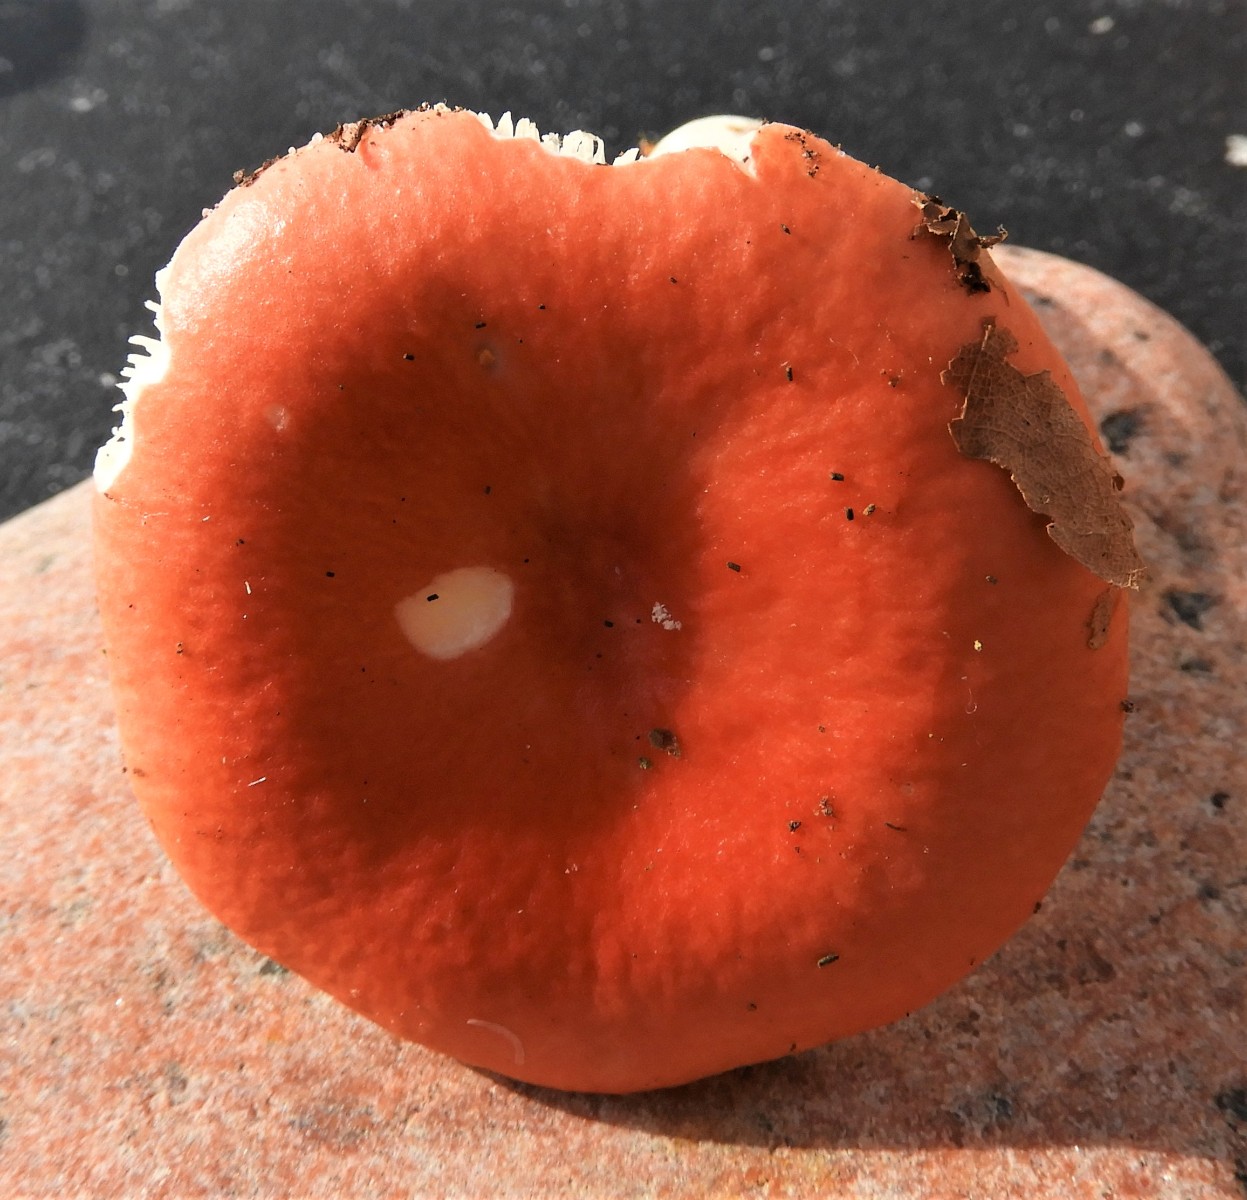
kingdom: Fungi
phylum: Basidiomycota
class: Agaricomycetes
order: Russulales
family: Russulaceae
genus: Russula
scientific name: Russula emetica
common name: stor gift-skørhat
